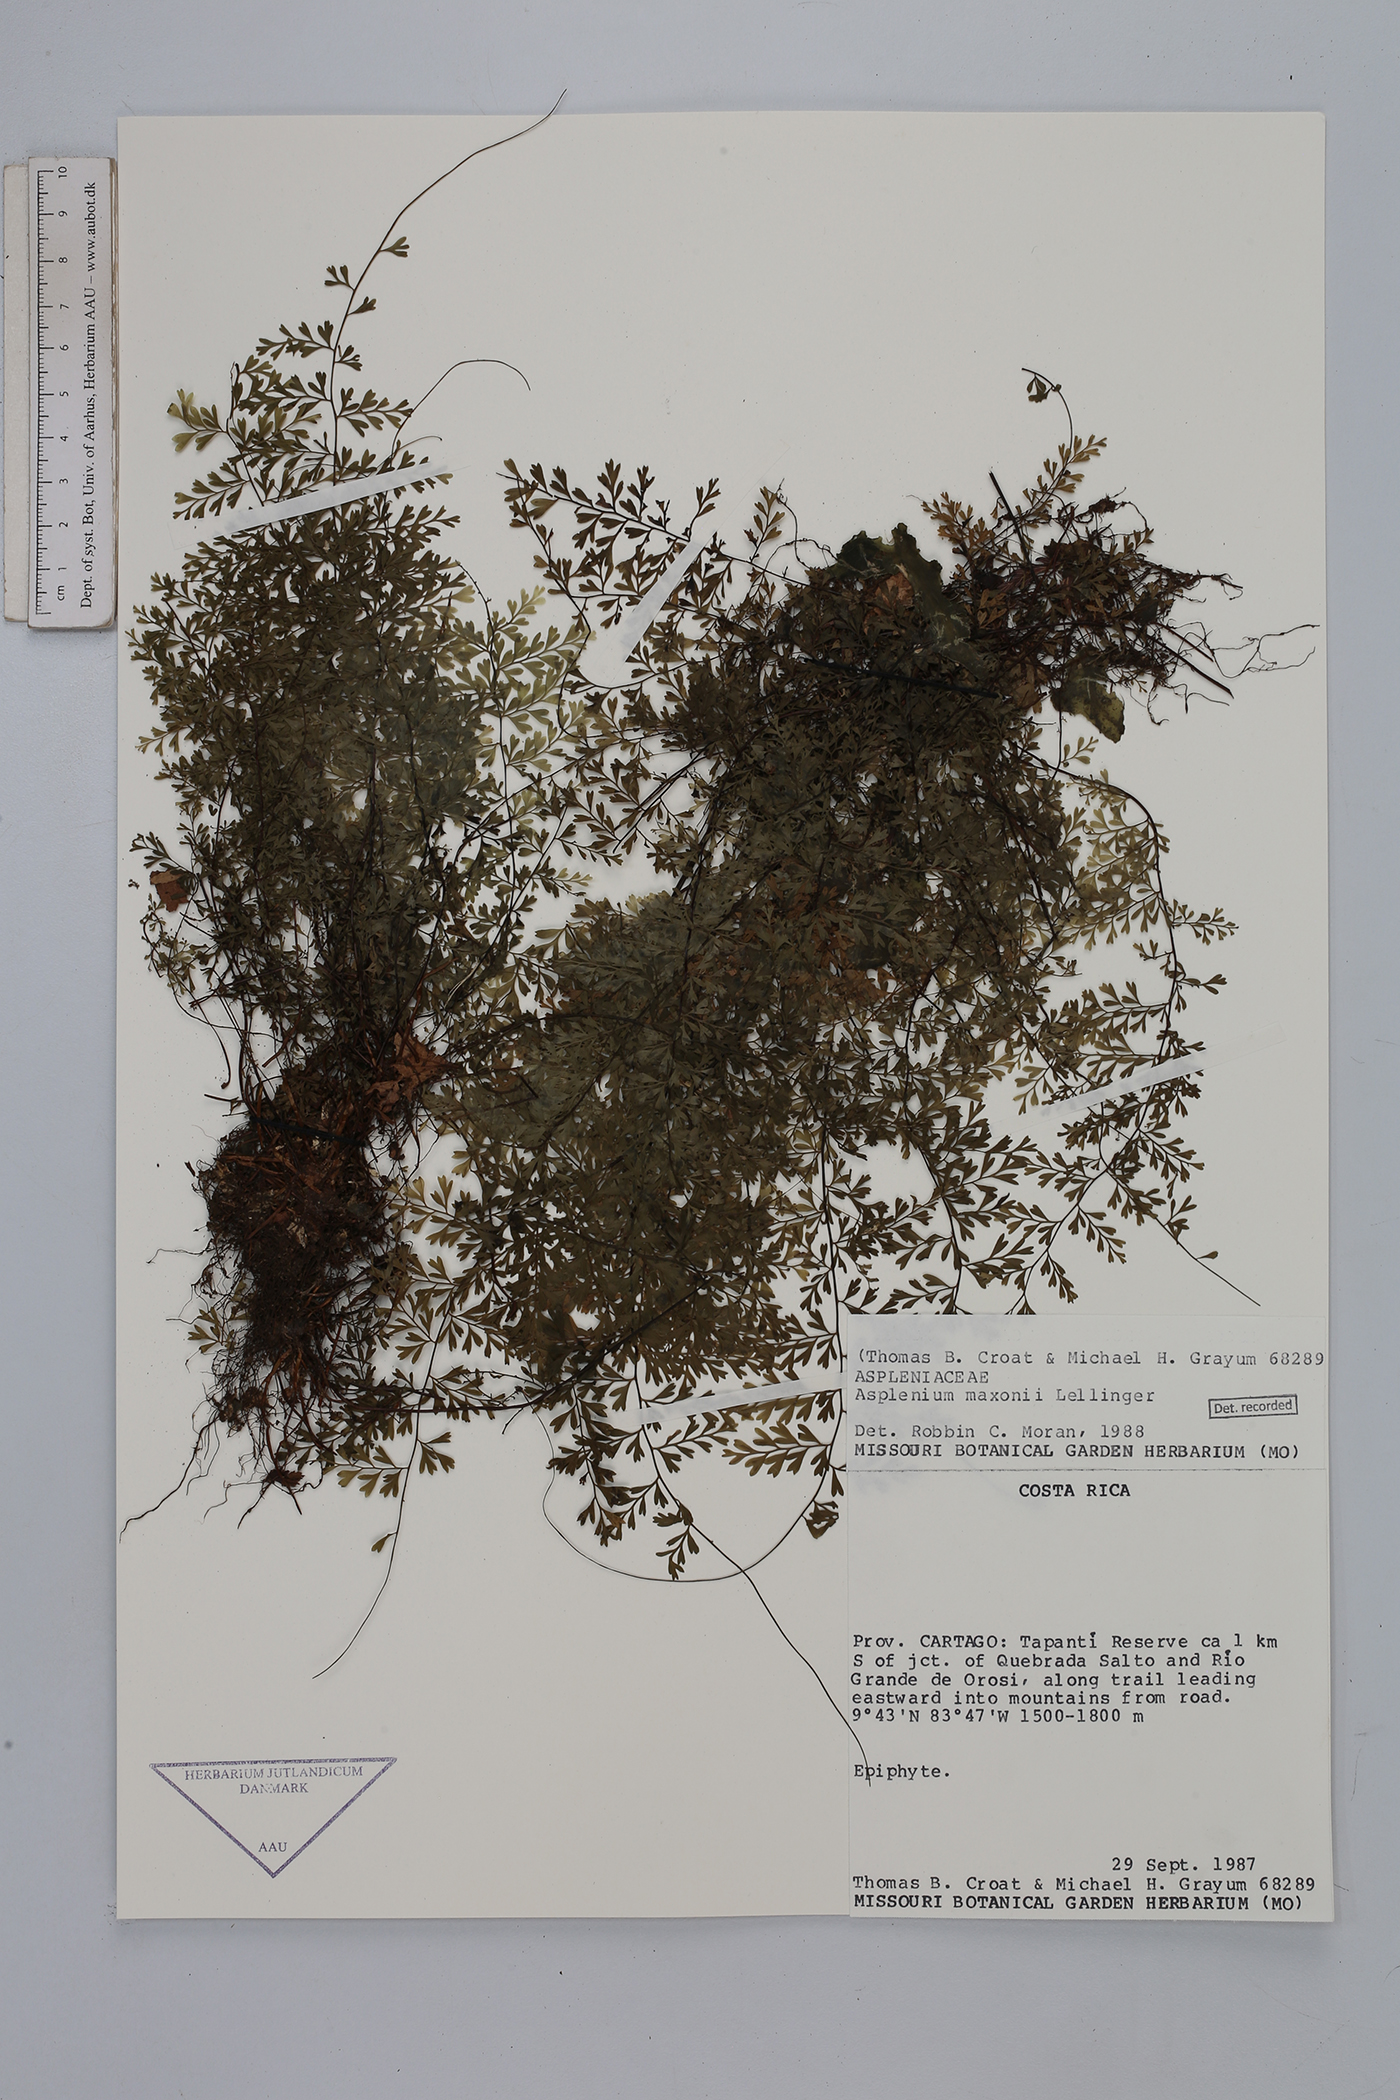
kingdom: Plantae
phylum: Tracheophyta
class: Polypodiopsida
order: Polypodiales
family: Aspleniaceae
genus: Asplenium
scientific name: Asplenium maxonii
